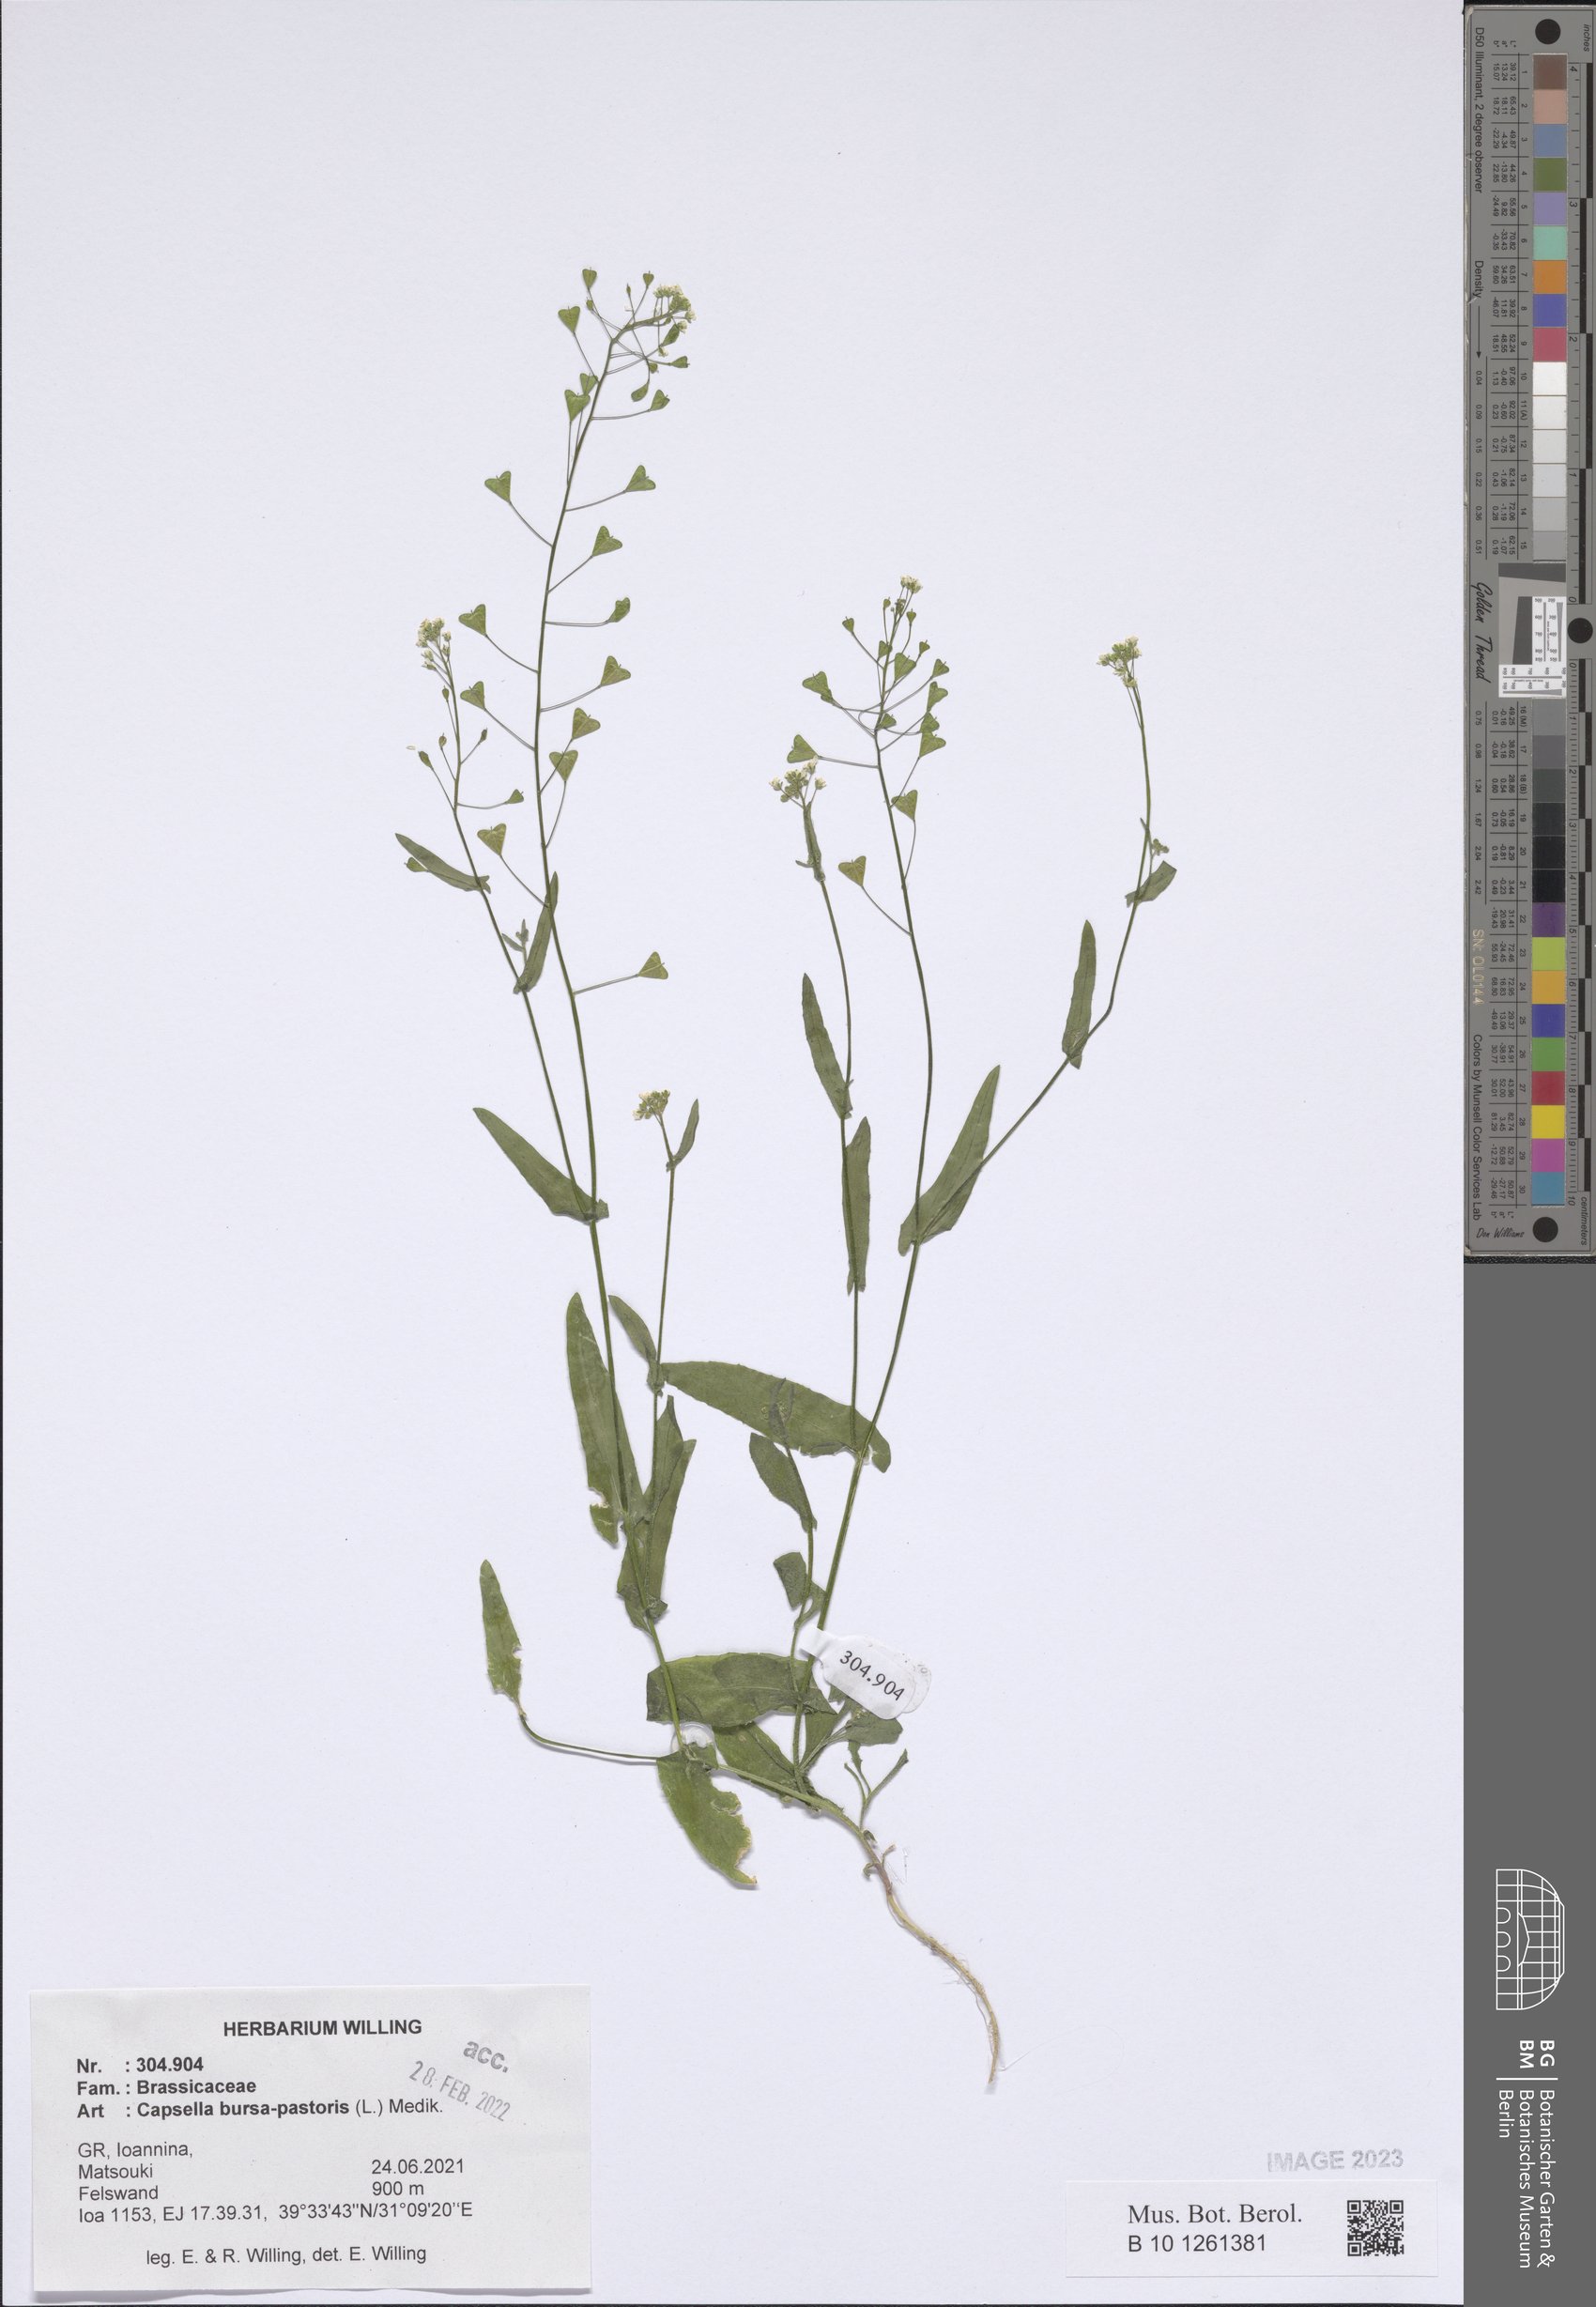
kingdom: Plantae
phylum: Tracheophyta
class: Magnoliopsida
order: Brassicales
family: Brassicaceae
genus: Capsella
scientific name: Capsella bursa-pastoris
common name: Shepherd's purse
